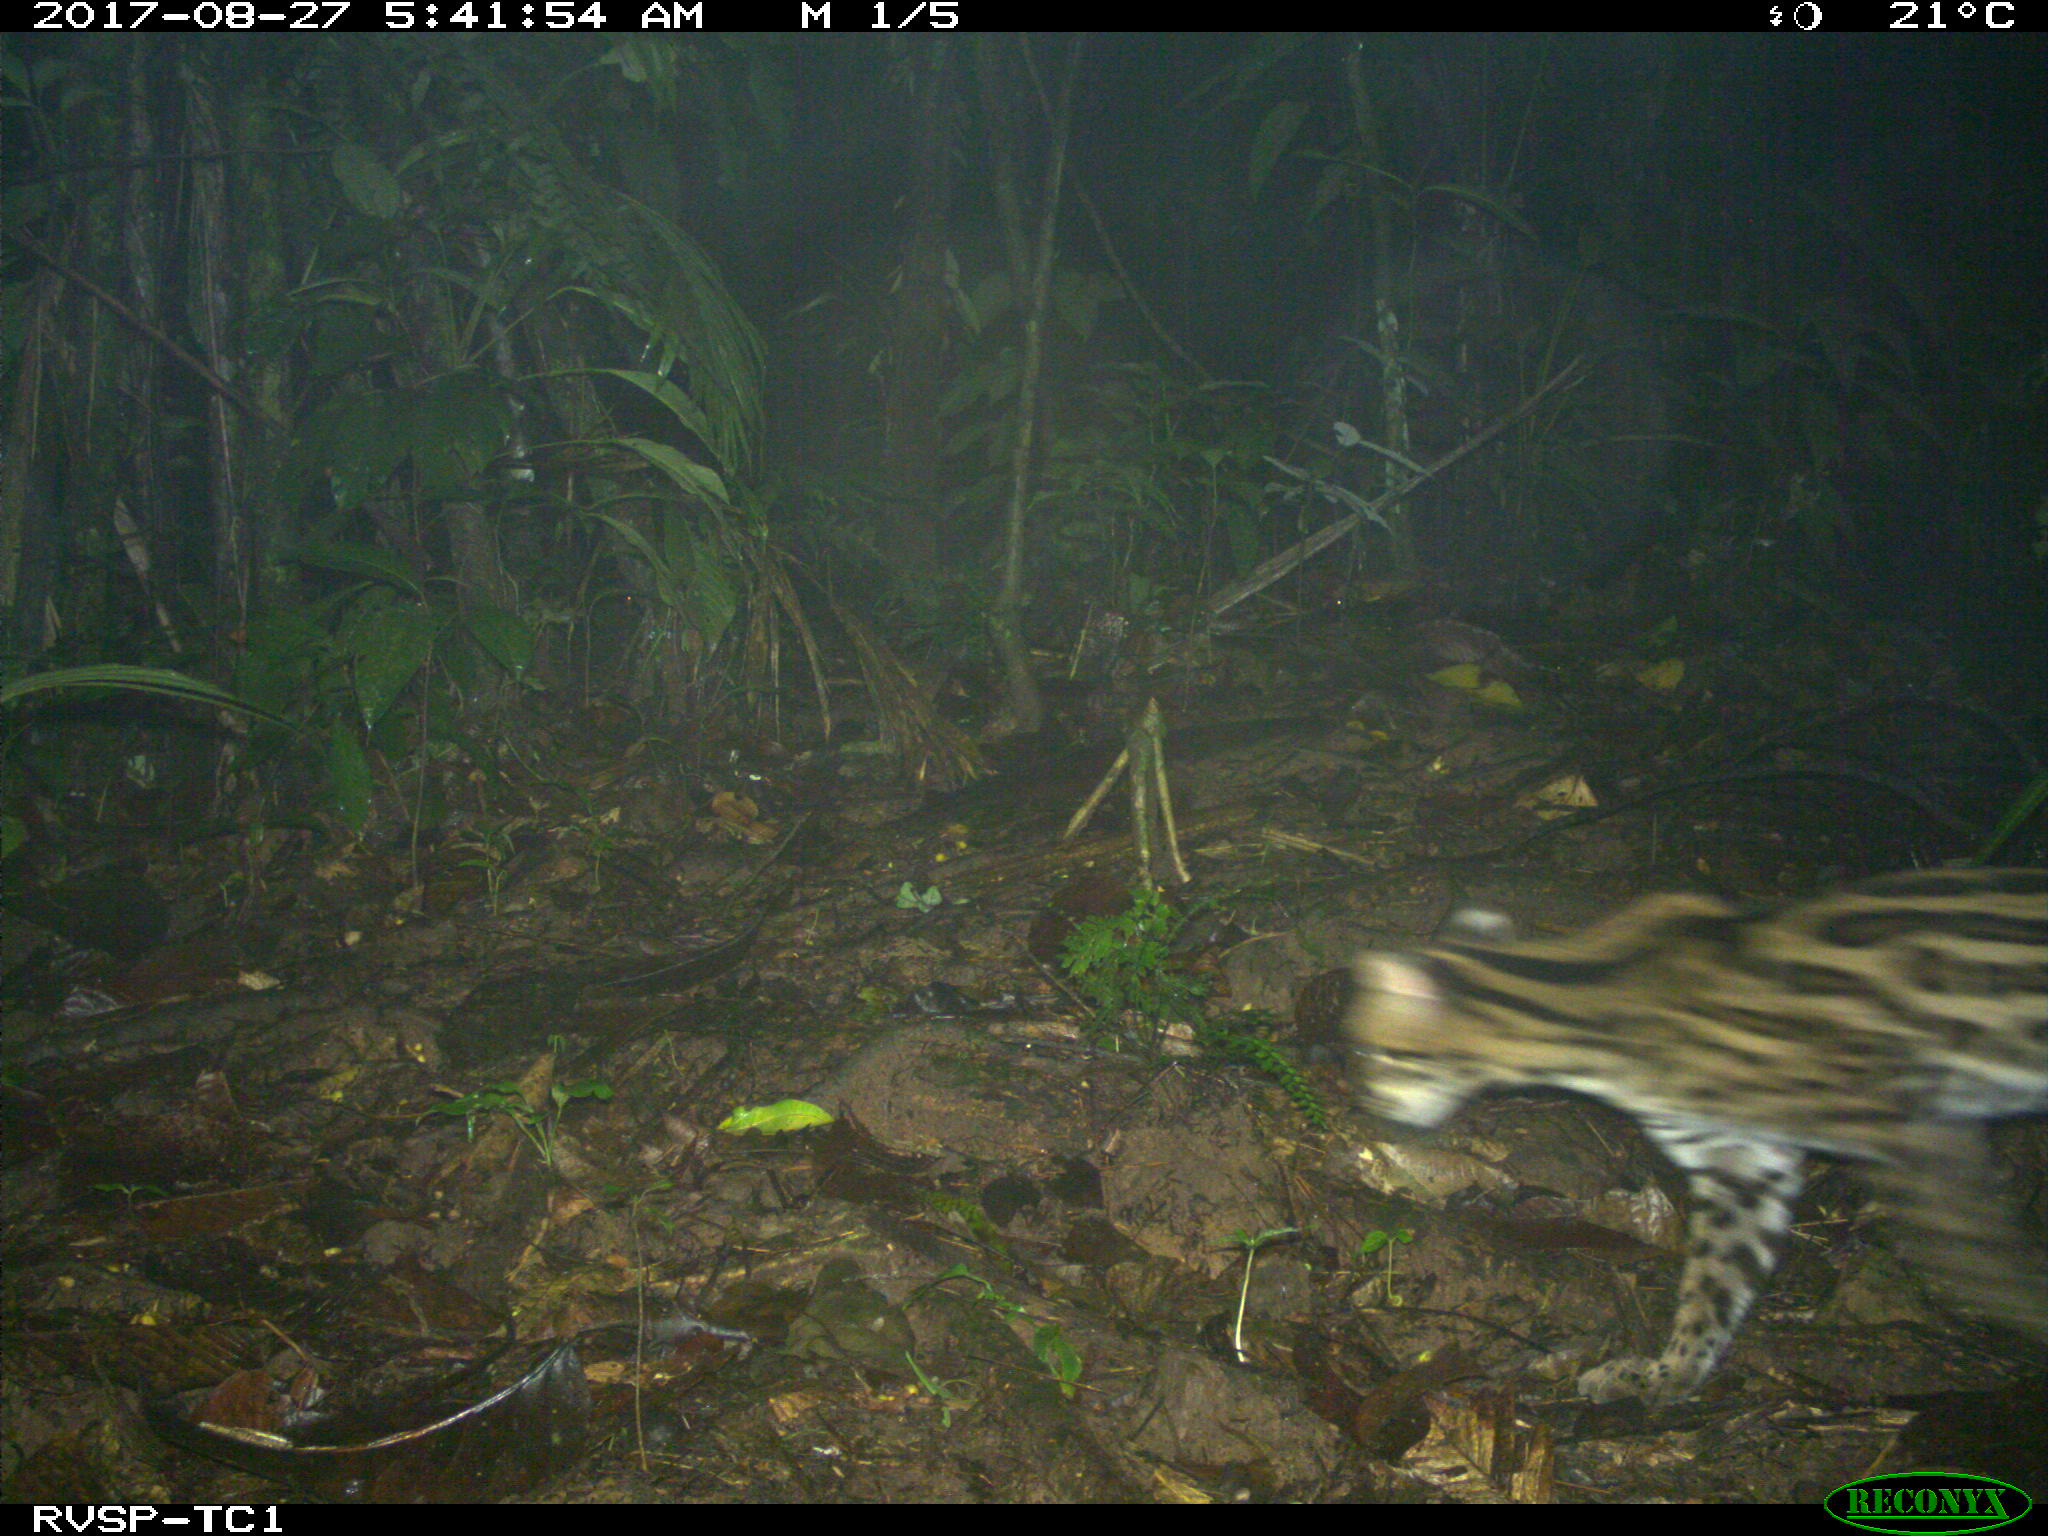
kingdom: Animalia
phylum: Chordata
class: Mammalia
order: Carnivora
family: Felidae
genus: Leopardus
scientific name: Leopardus pardalis
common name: Ocelot
